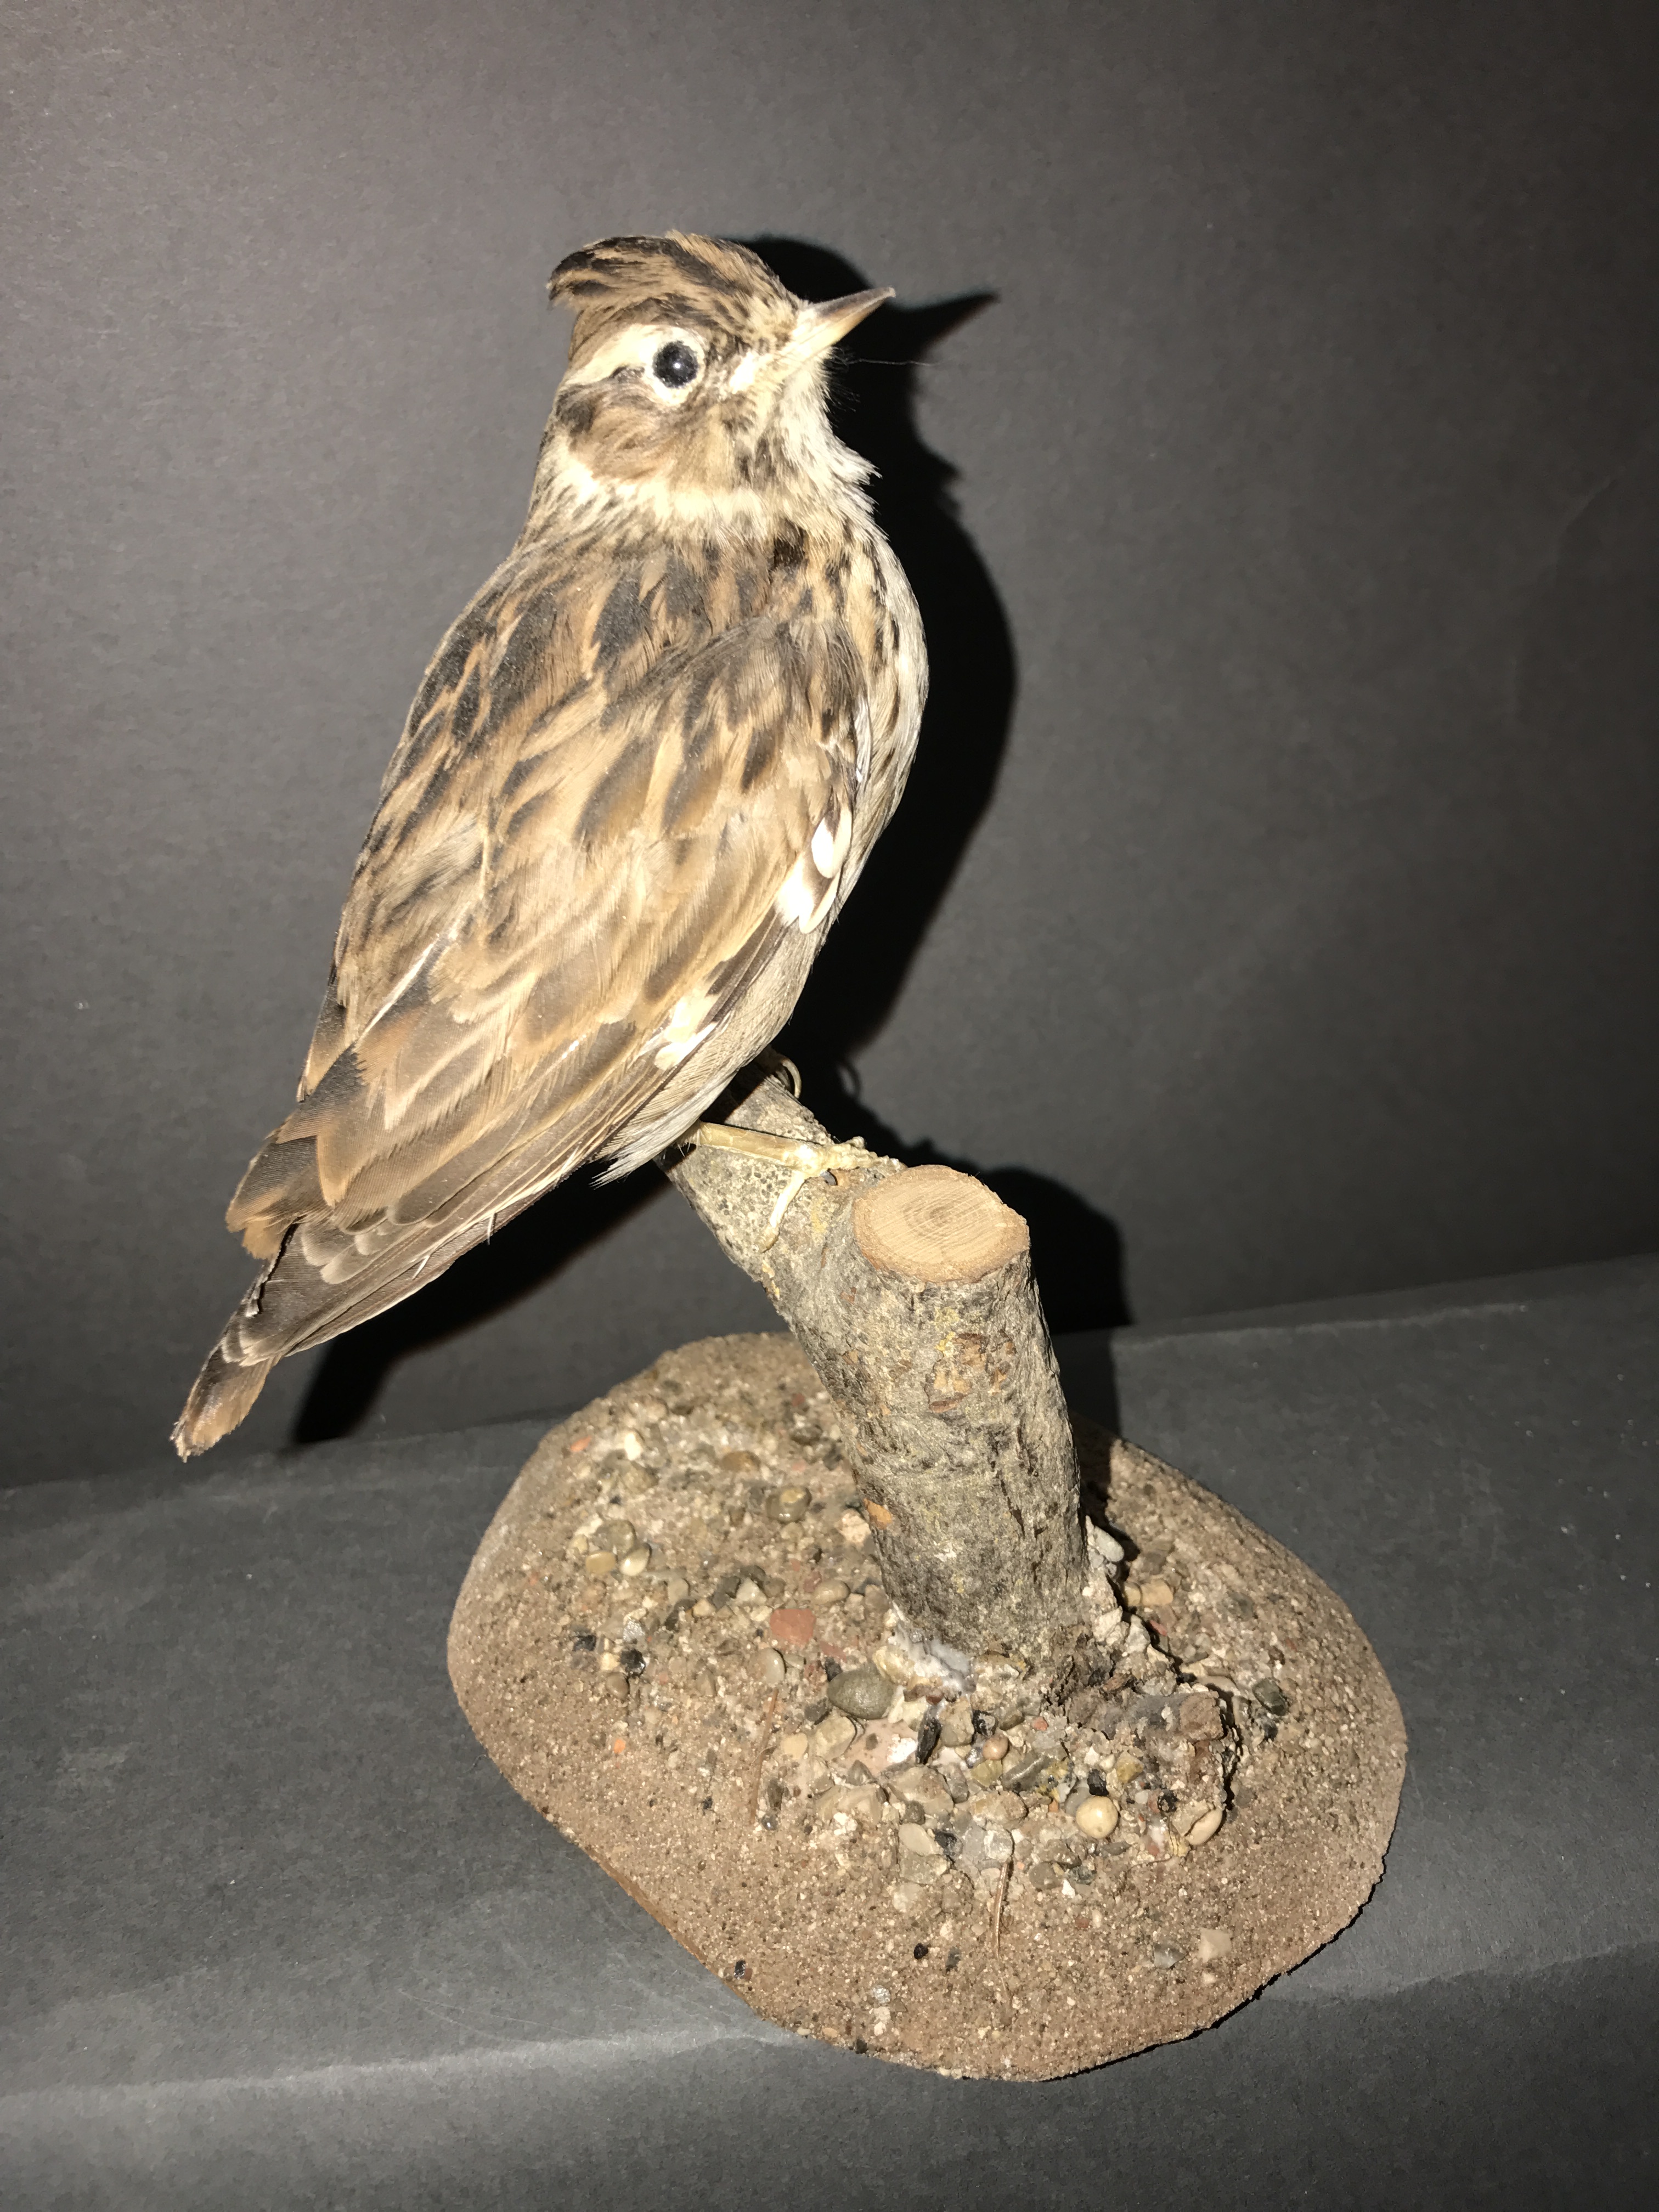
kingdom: Animalia
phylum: Chordata
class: Aves
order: Passeriformes
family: Alaudidae
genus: Lullula
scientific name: Lullula arborea
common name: Woodlark
